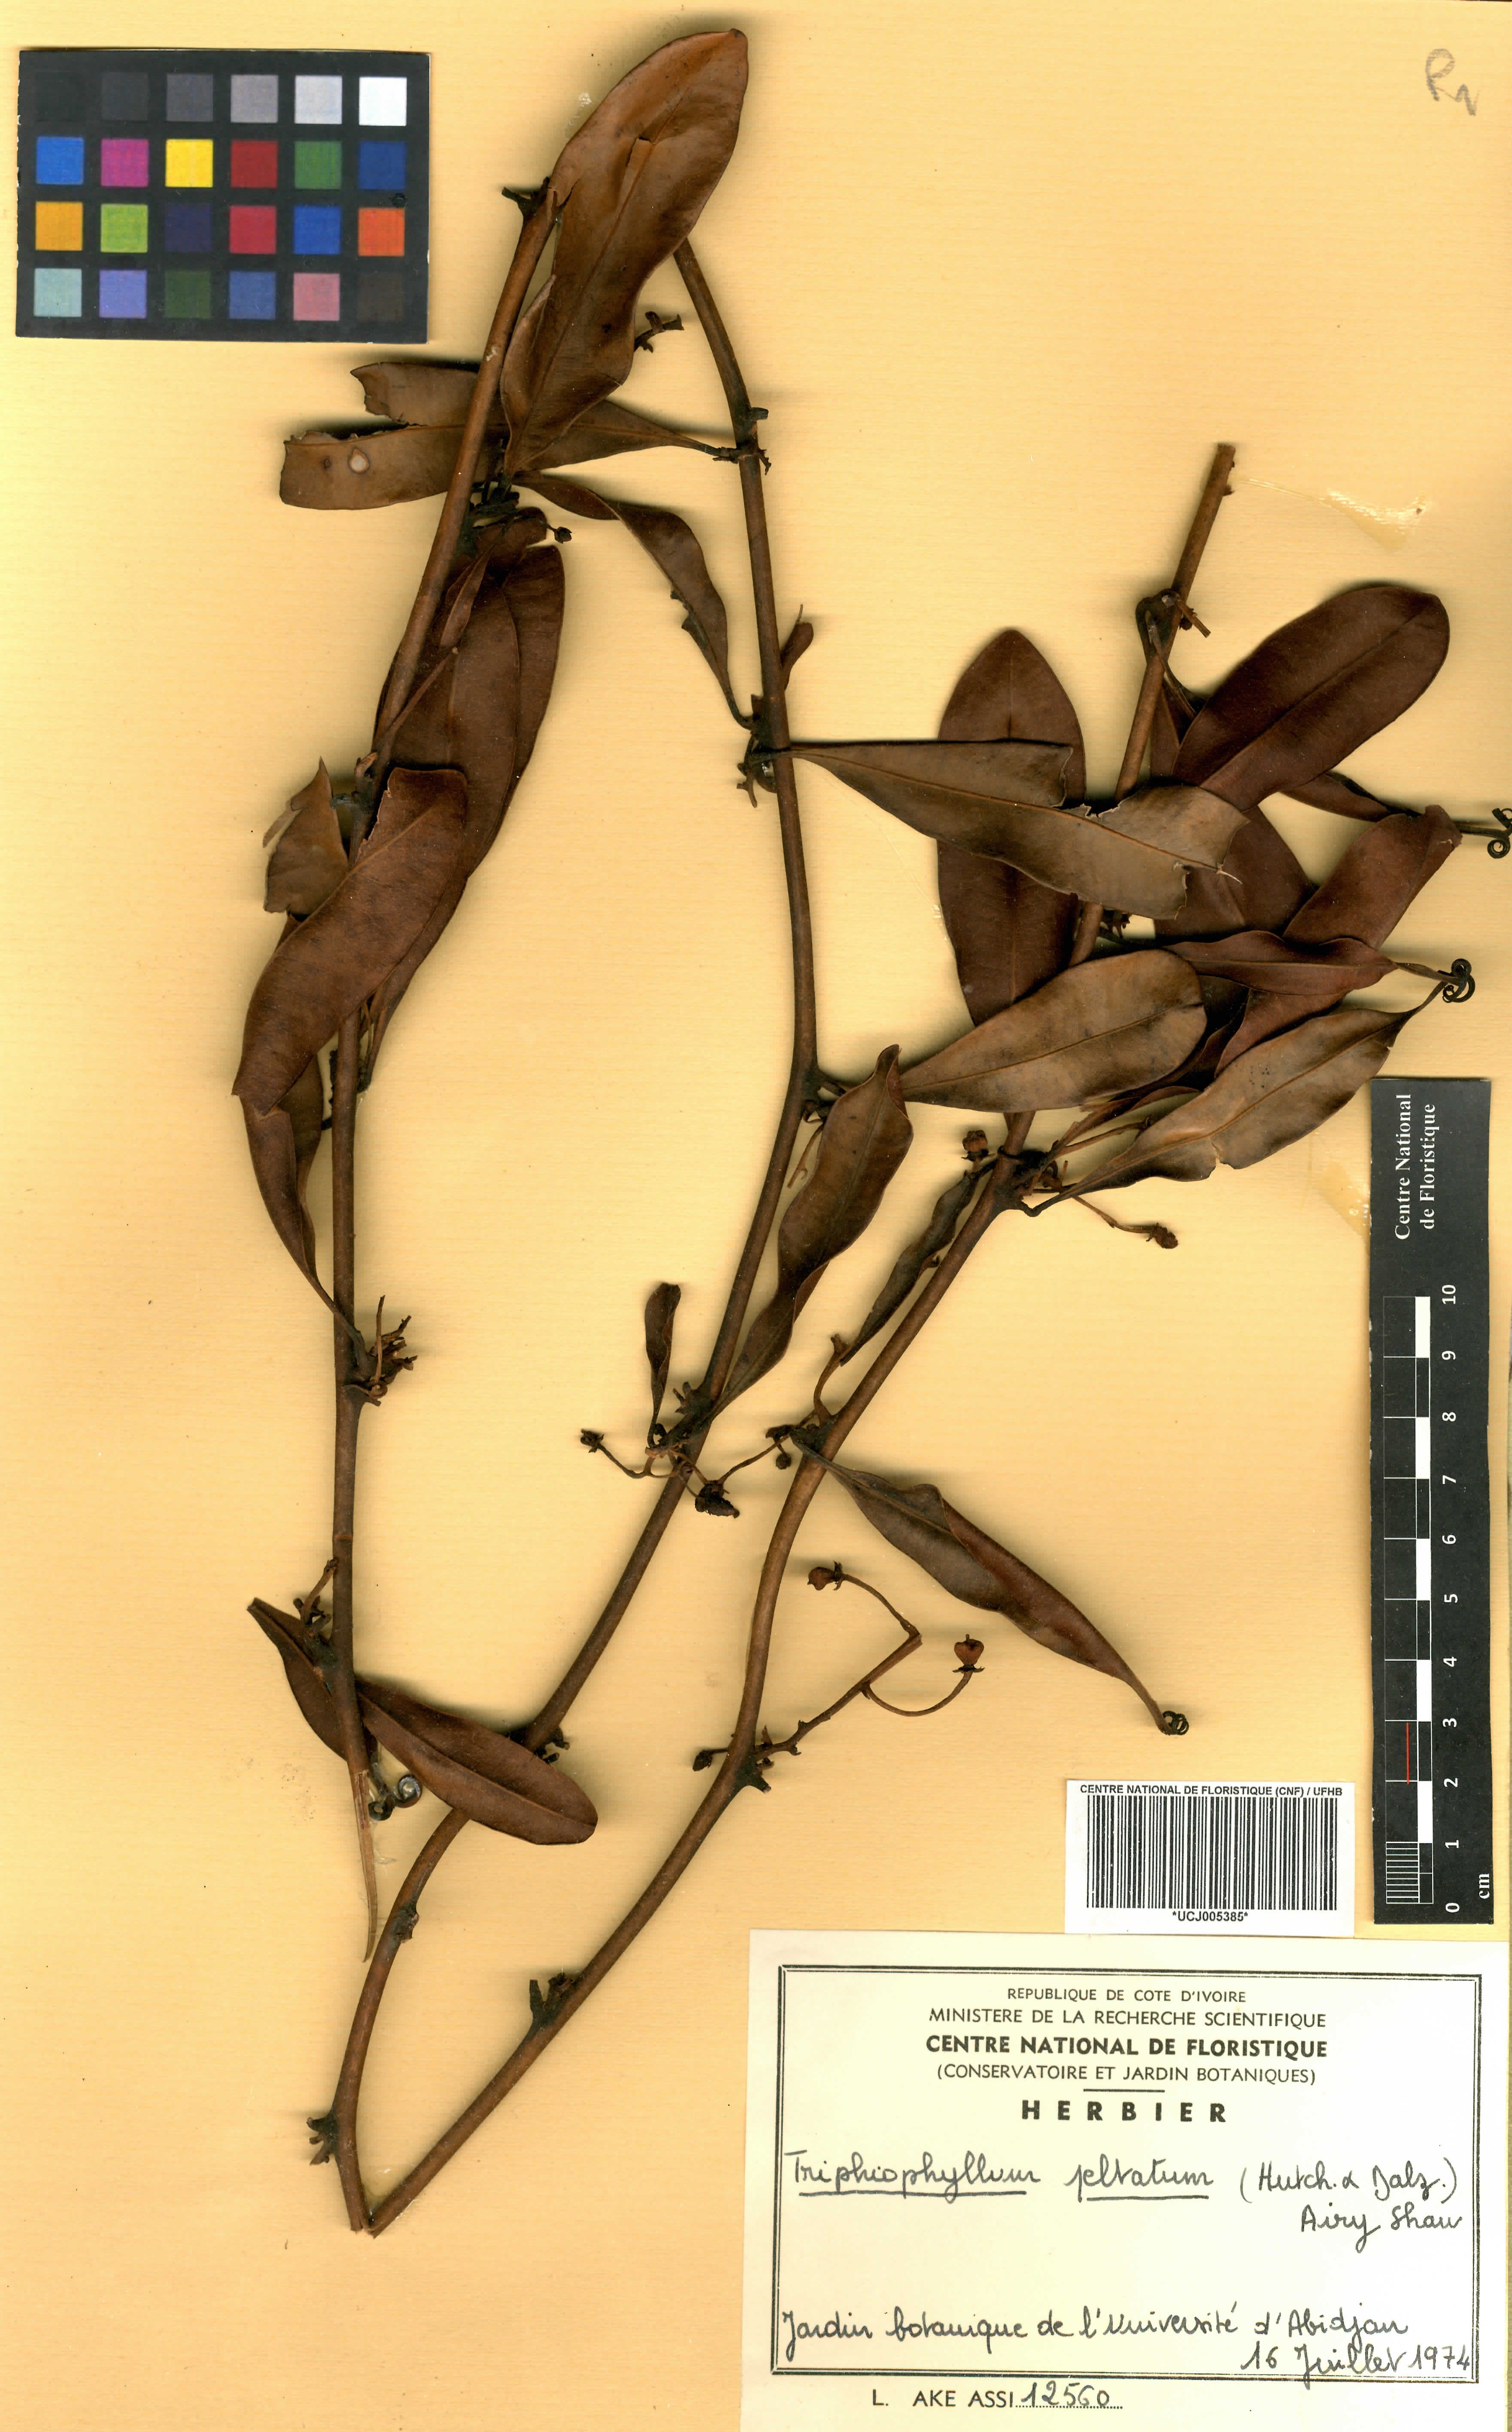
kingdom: Plantae
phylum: Tracheophyta
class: Magnoliopsida
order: Caryophyllales
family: Dioncophyllaceae
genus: Triphyophyllum
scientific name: Triphyophyllum peltatum
